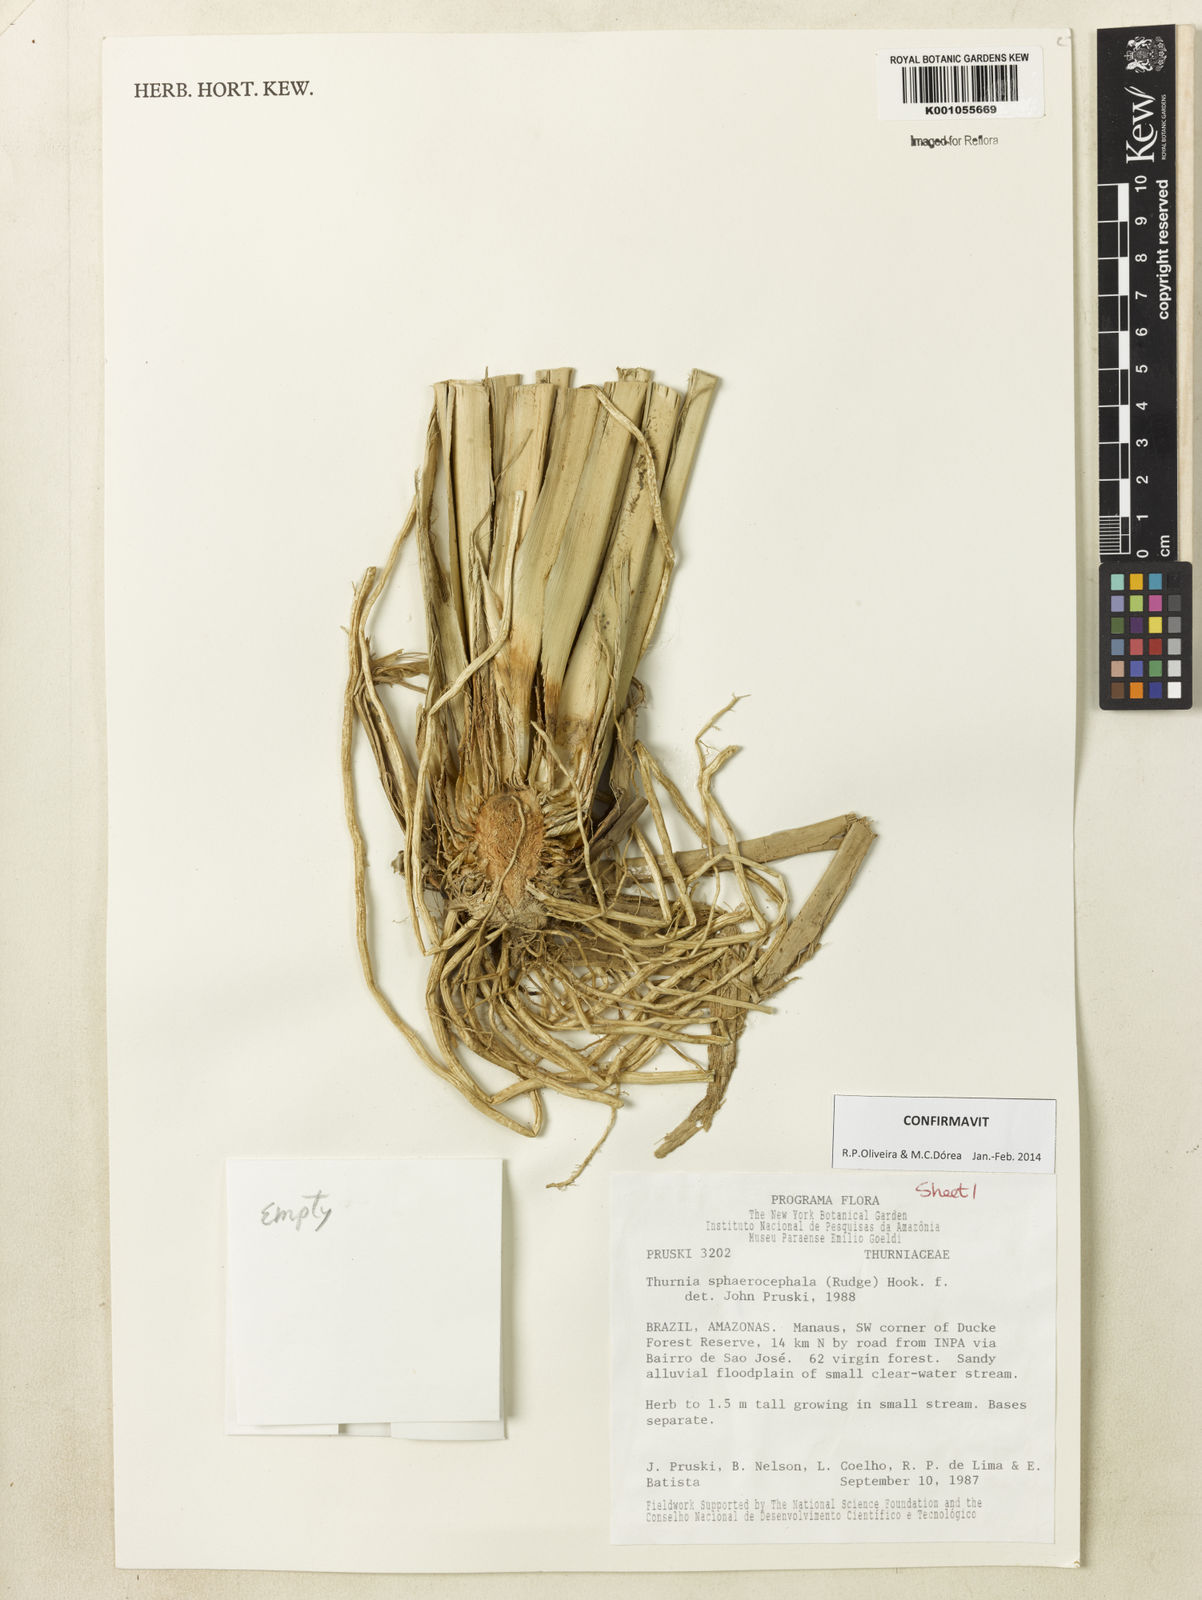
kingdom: Plantae
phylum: Tracheophyta
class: Liliopsida
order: Poales
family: Thurniaceae
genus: Thurnia
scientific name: Thurnia sphaerocephala
